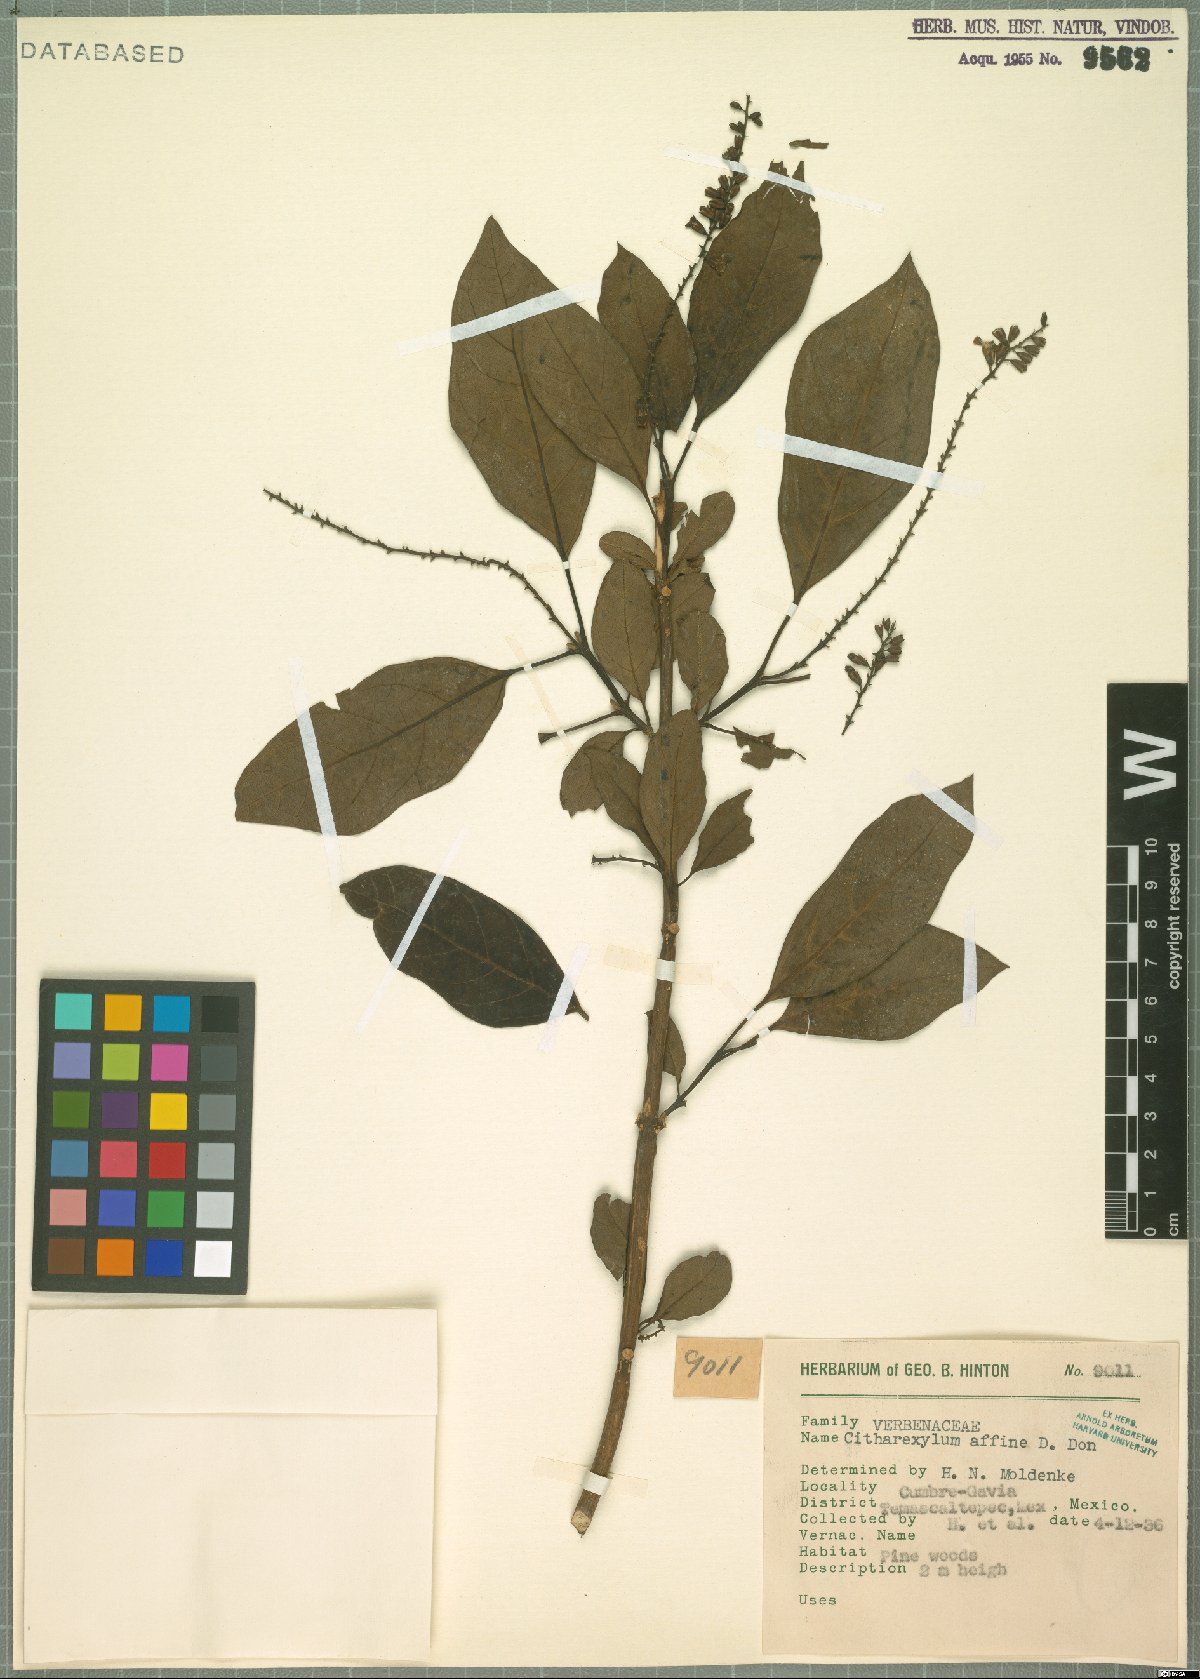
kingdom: Plantae
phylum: Tracheophyta
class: Magnoliopsida
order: Lamiales
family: Verbenaceae
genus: Citharexylum
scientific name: Citharexylum affine
